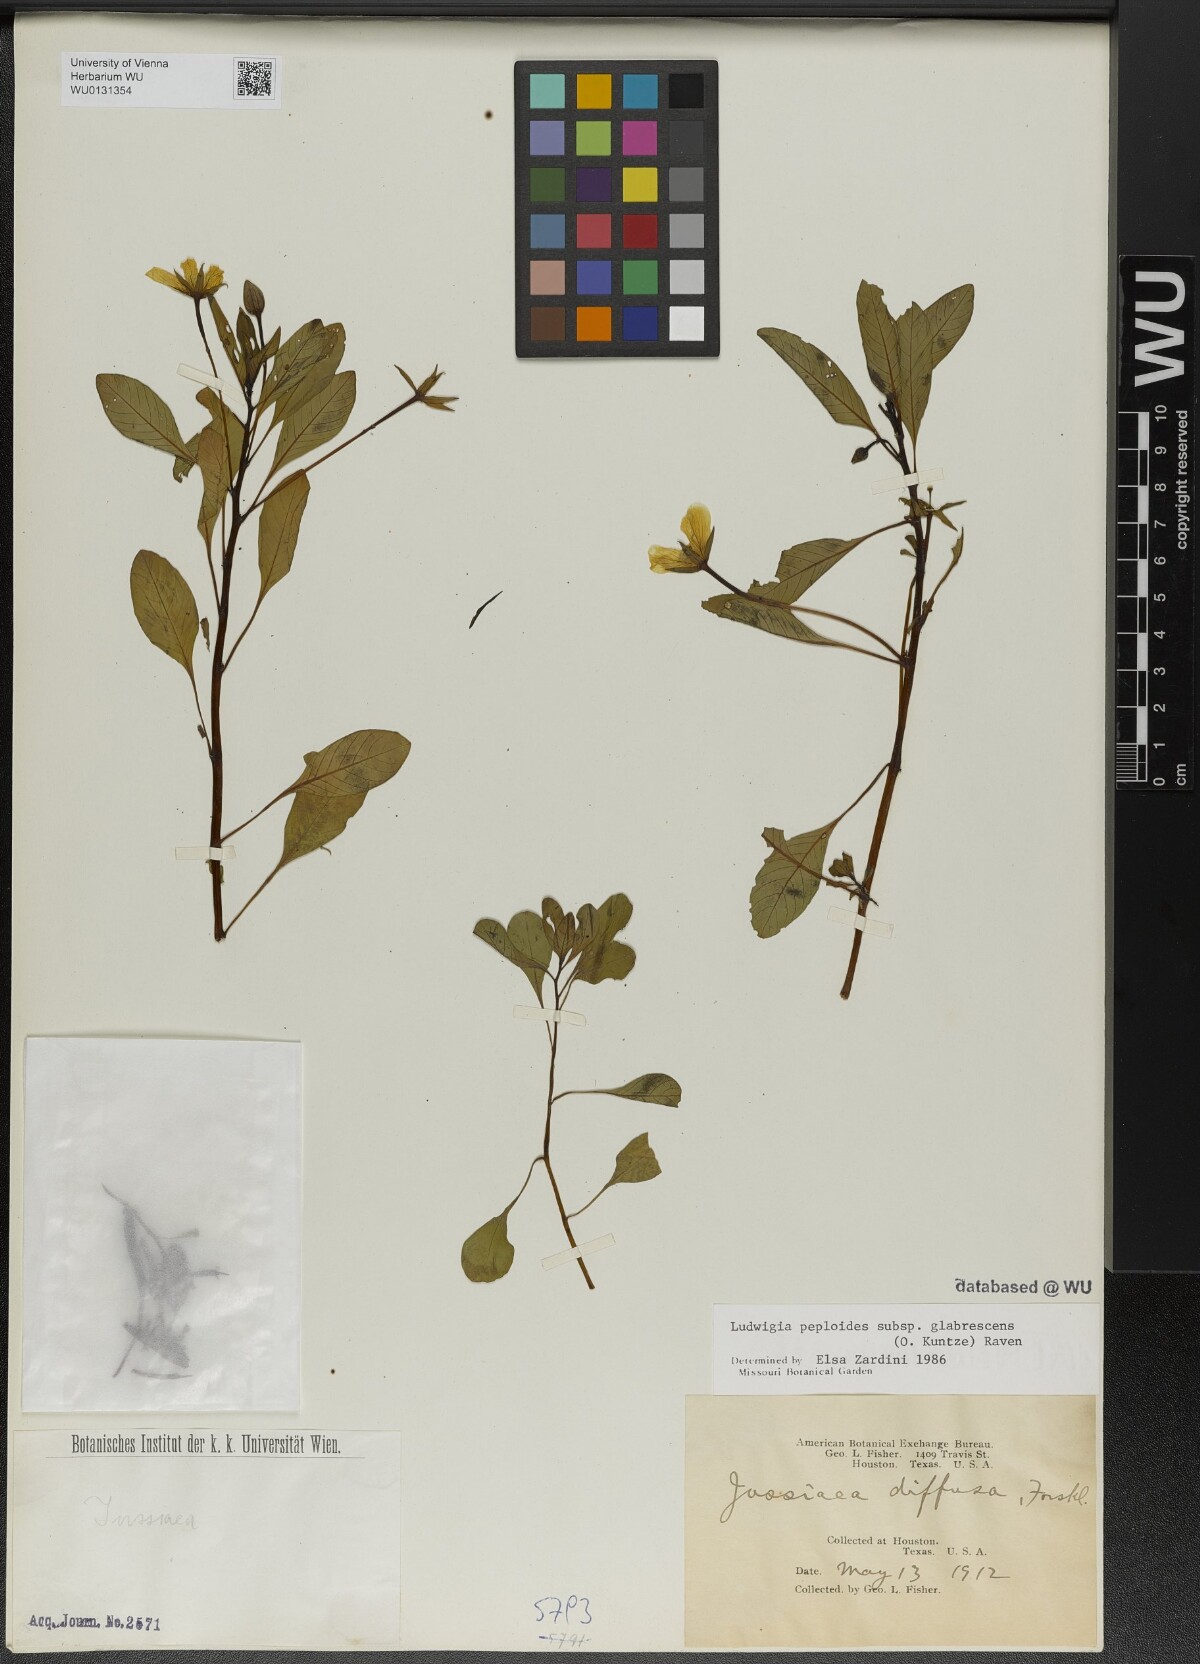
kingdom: Plantae
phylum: Tracheophyta
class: Magnoliopsida
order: Myrtales
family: Onagraceae
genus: Ludwigia
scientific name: Ludwigia peploides
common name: Floating primrose-willow
